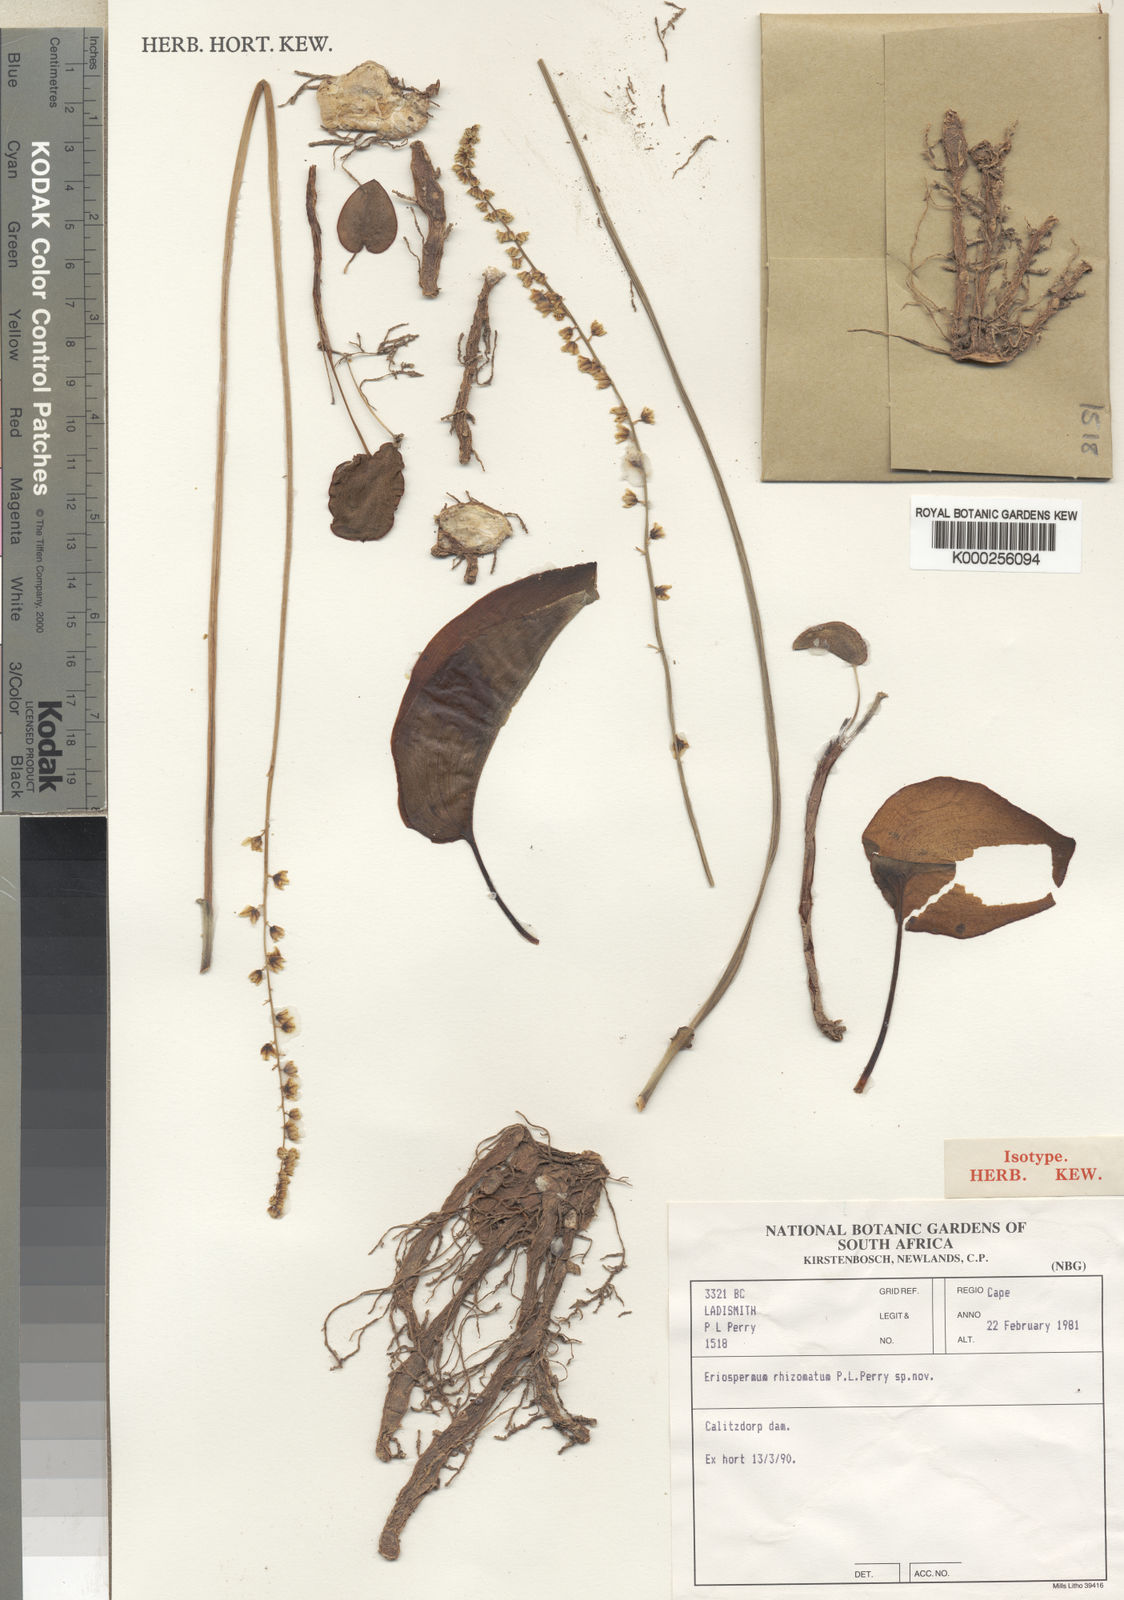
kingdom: Plantae
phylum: Tracheophyta
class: Liliopsida
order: Asparagales
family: Asparagaceae
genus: Eriospermum
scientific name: Eriospermum rhizomatum
